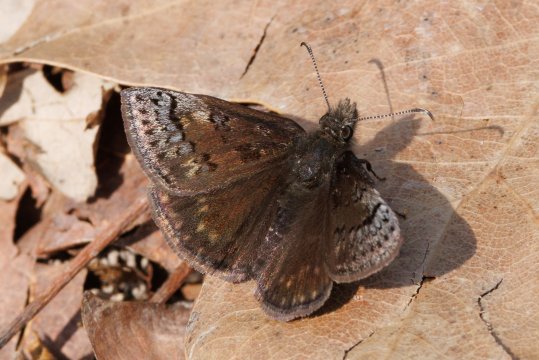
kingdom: Animalia
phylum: Arthropoda
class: Insecta
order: Lepidoptera
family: Hesperiidae
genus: Erynnis
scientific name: Erynnis brizo
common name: Sleepy Duskywing
